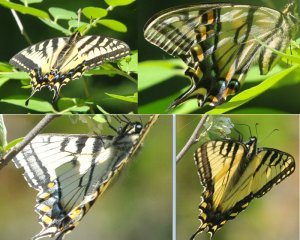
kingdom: Animalia
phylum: Arthropoda
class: Insecta
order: Lepidoptera
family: Papilionidae
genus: Pterourus
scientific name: Pterourus canadensis
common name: Canadian Tiger Swallowtail
